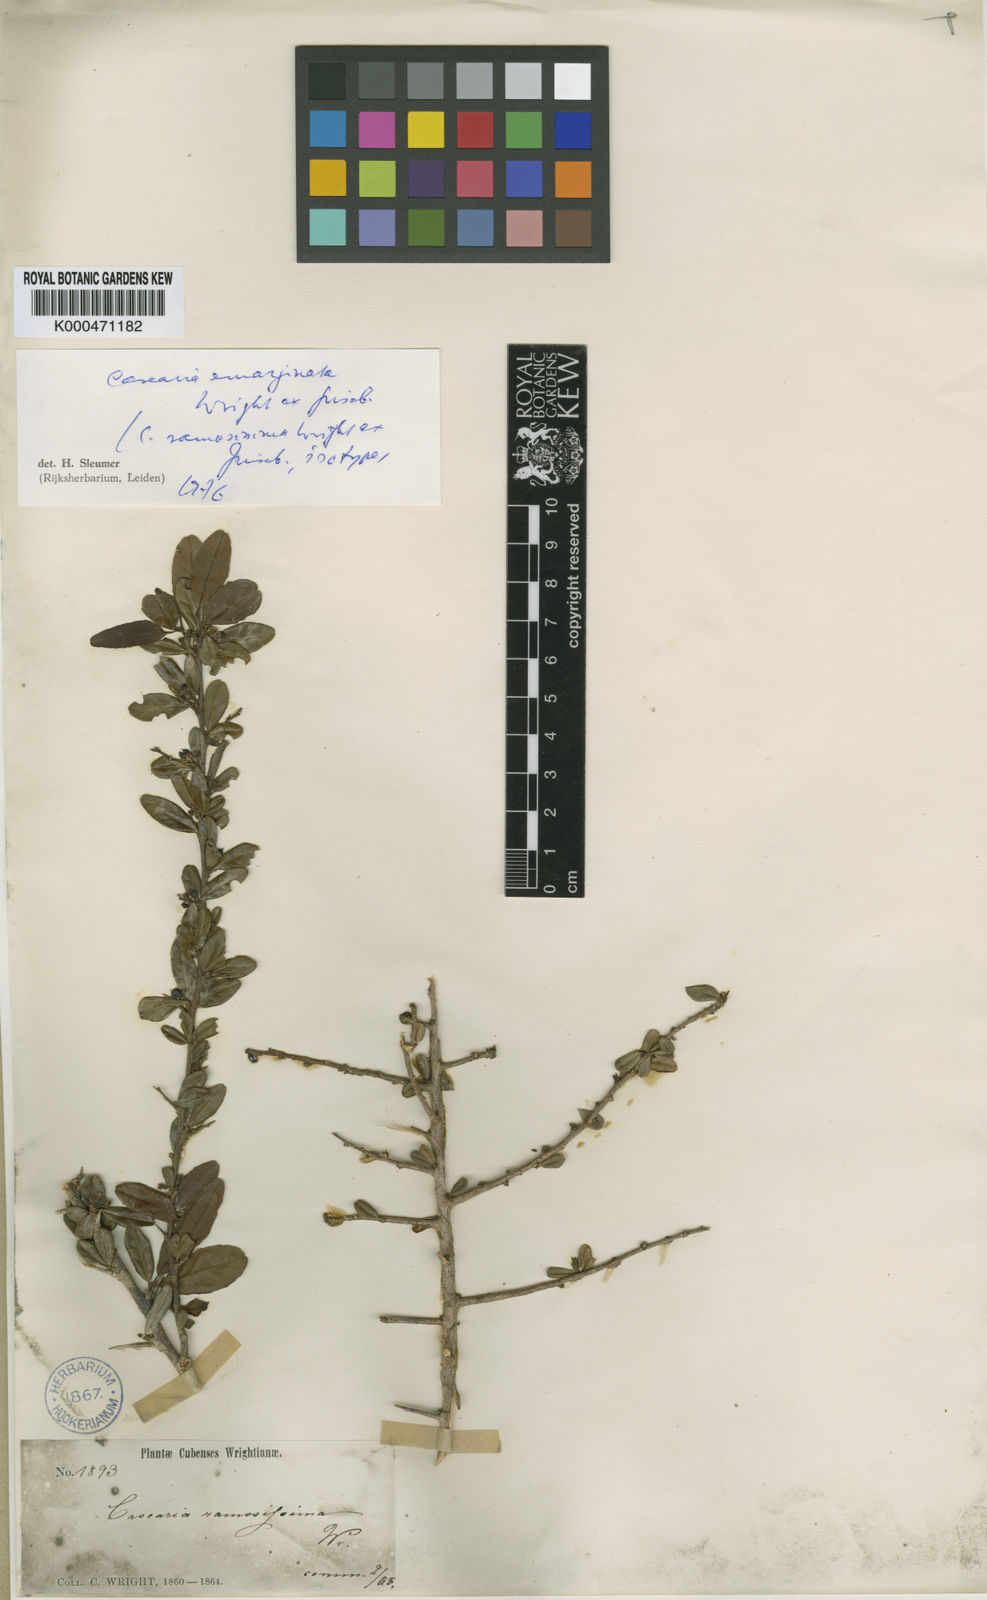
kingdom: Plantae
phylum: Tracheophyta
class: Magnoliopsida
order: Malpighiales
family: Salicaceae
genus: Casearia
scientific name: Casearia emarginata
